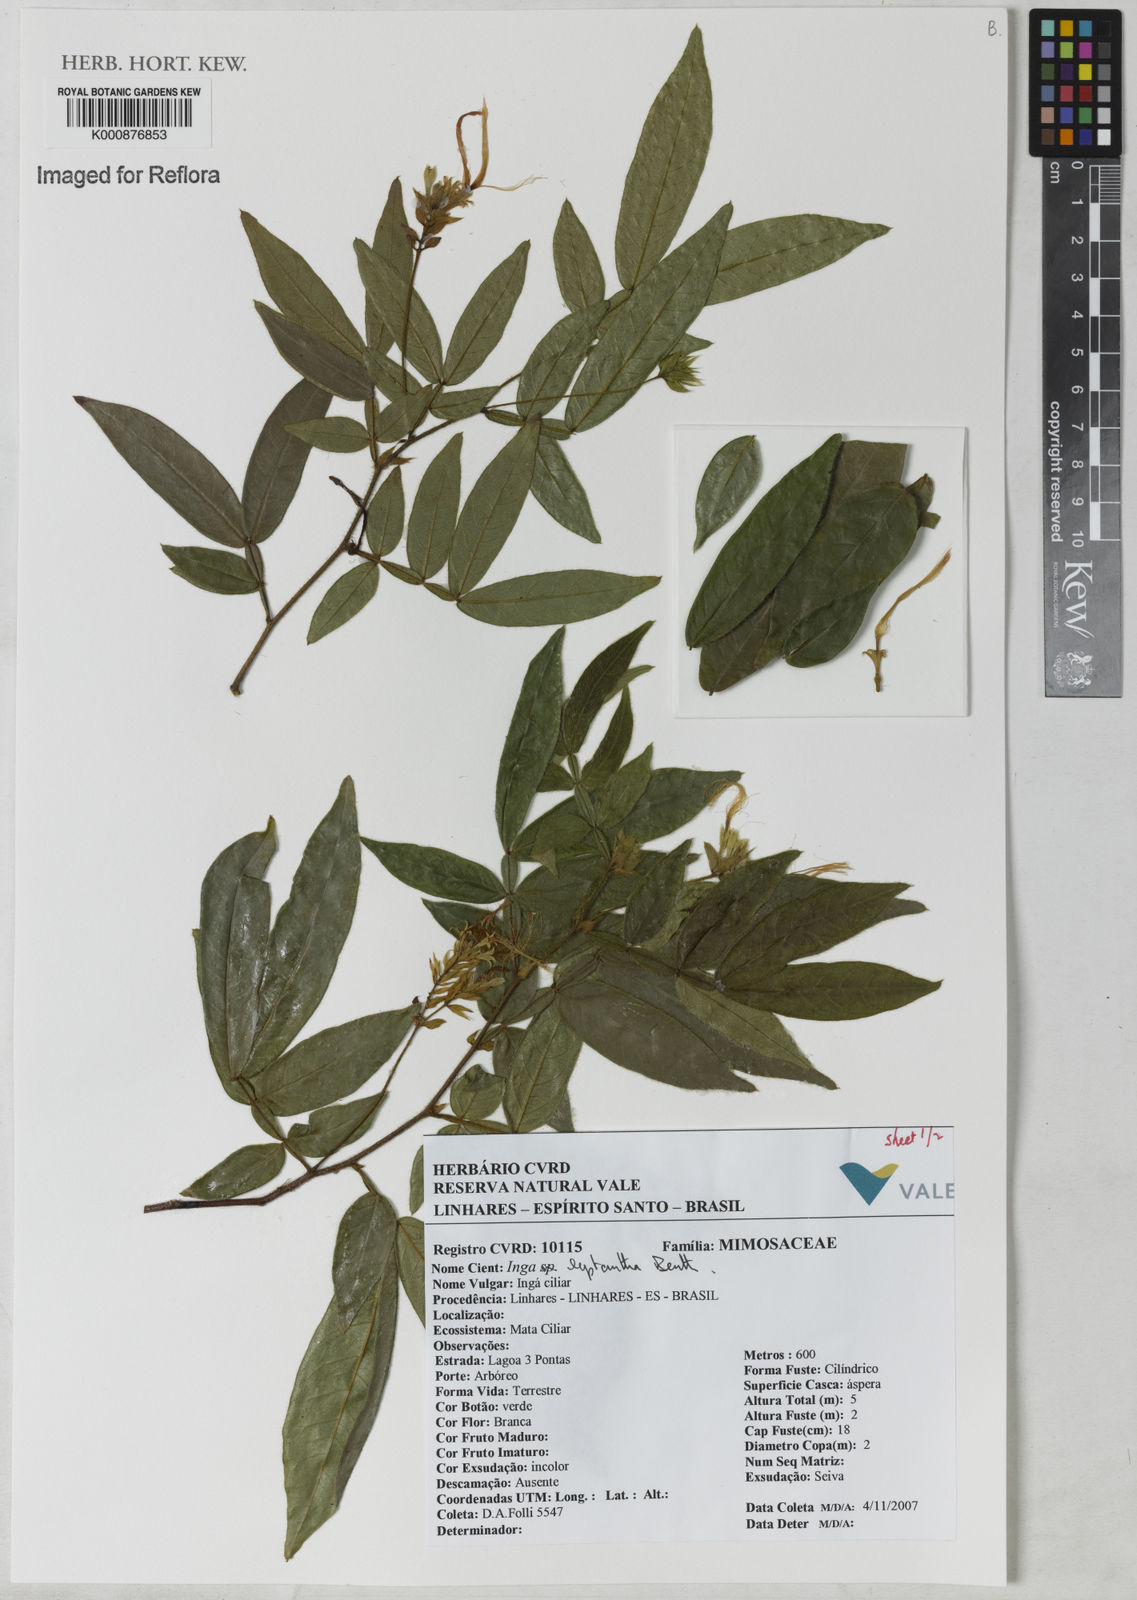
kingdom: Plantae
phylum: Tracheophyta
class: Magnoliopsida
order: Fabales
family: Fabaceae
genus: Inga
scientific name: Inga leptantha
